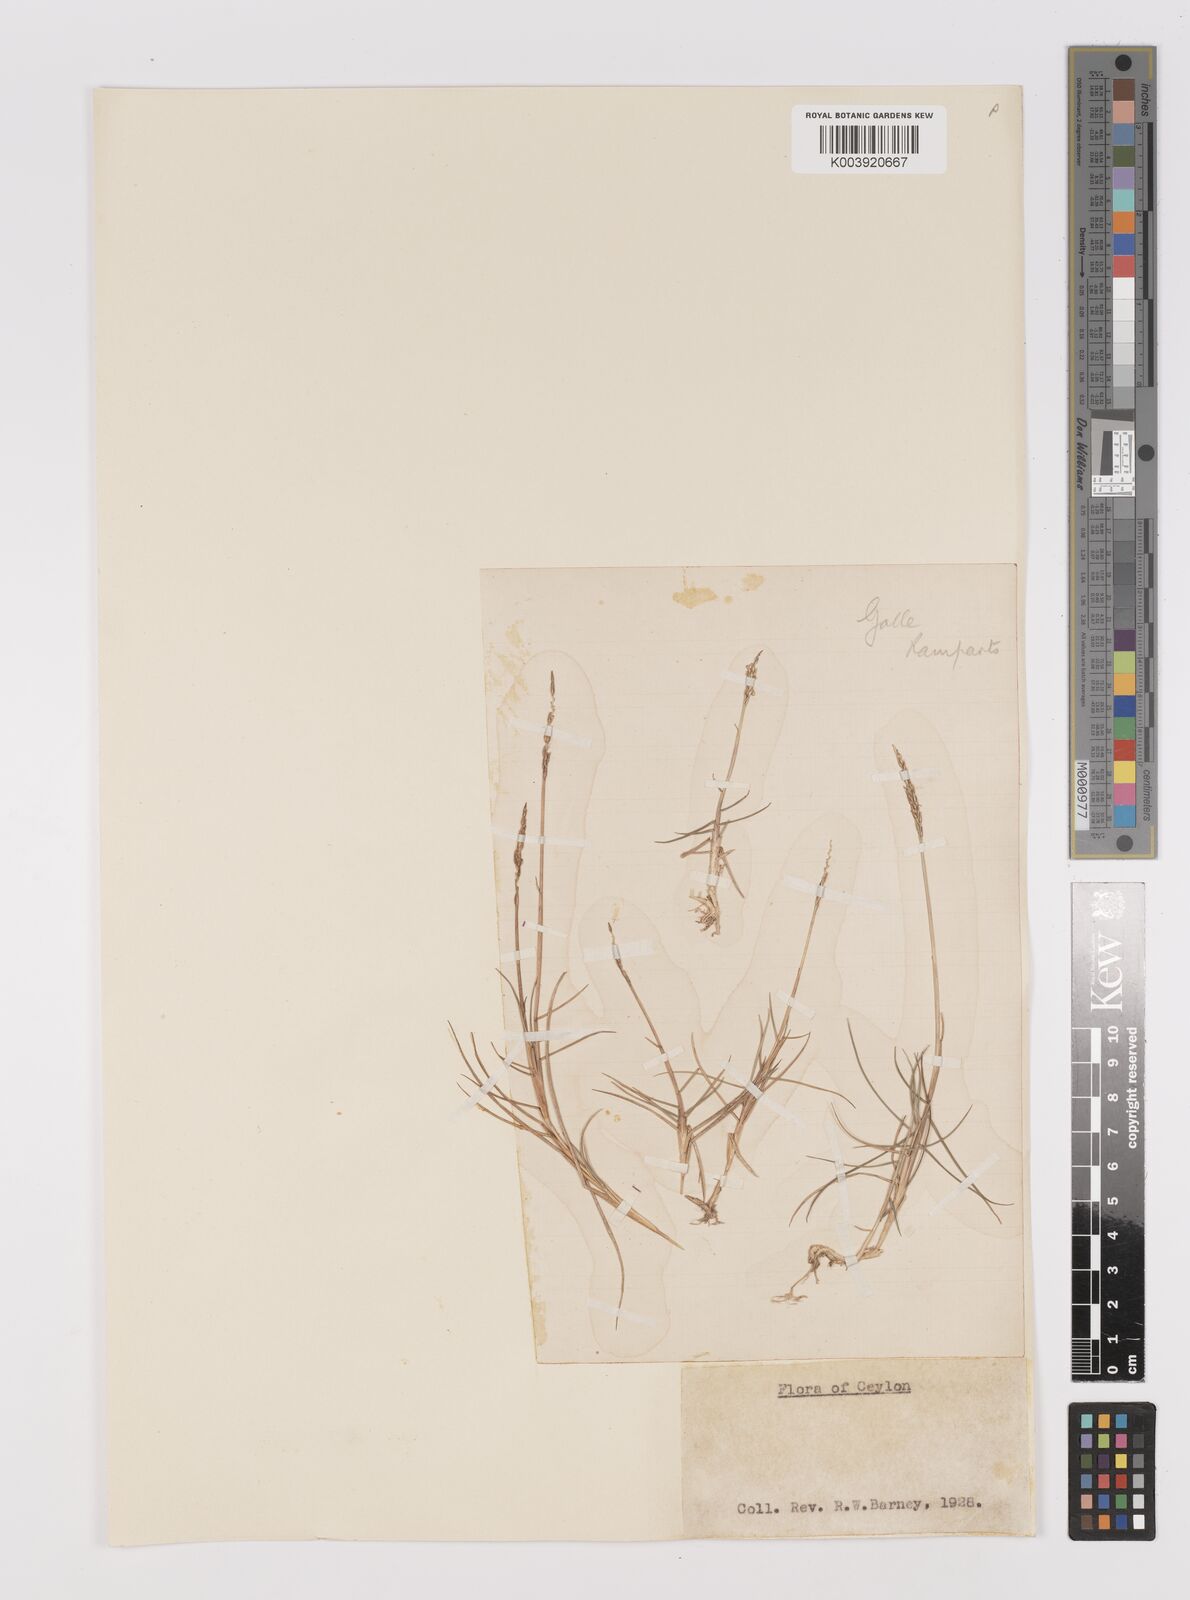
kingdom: Plantae
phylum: Tracheophyta
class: Liliopsida
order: Poales
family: Poaceae
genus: Zoysia
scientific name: Zoysia matrella
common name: Manila grass
